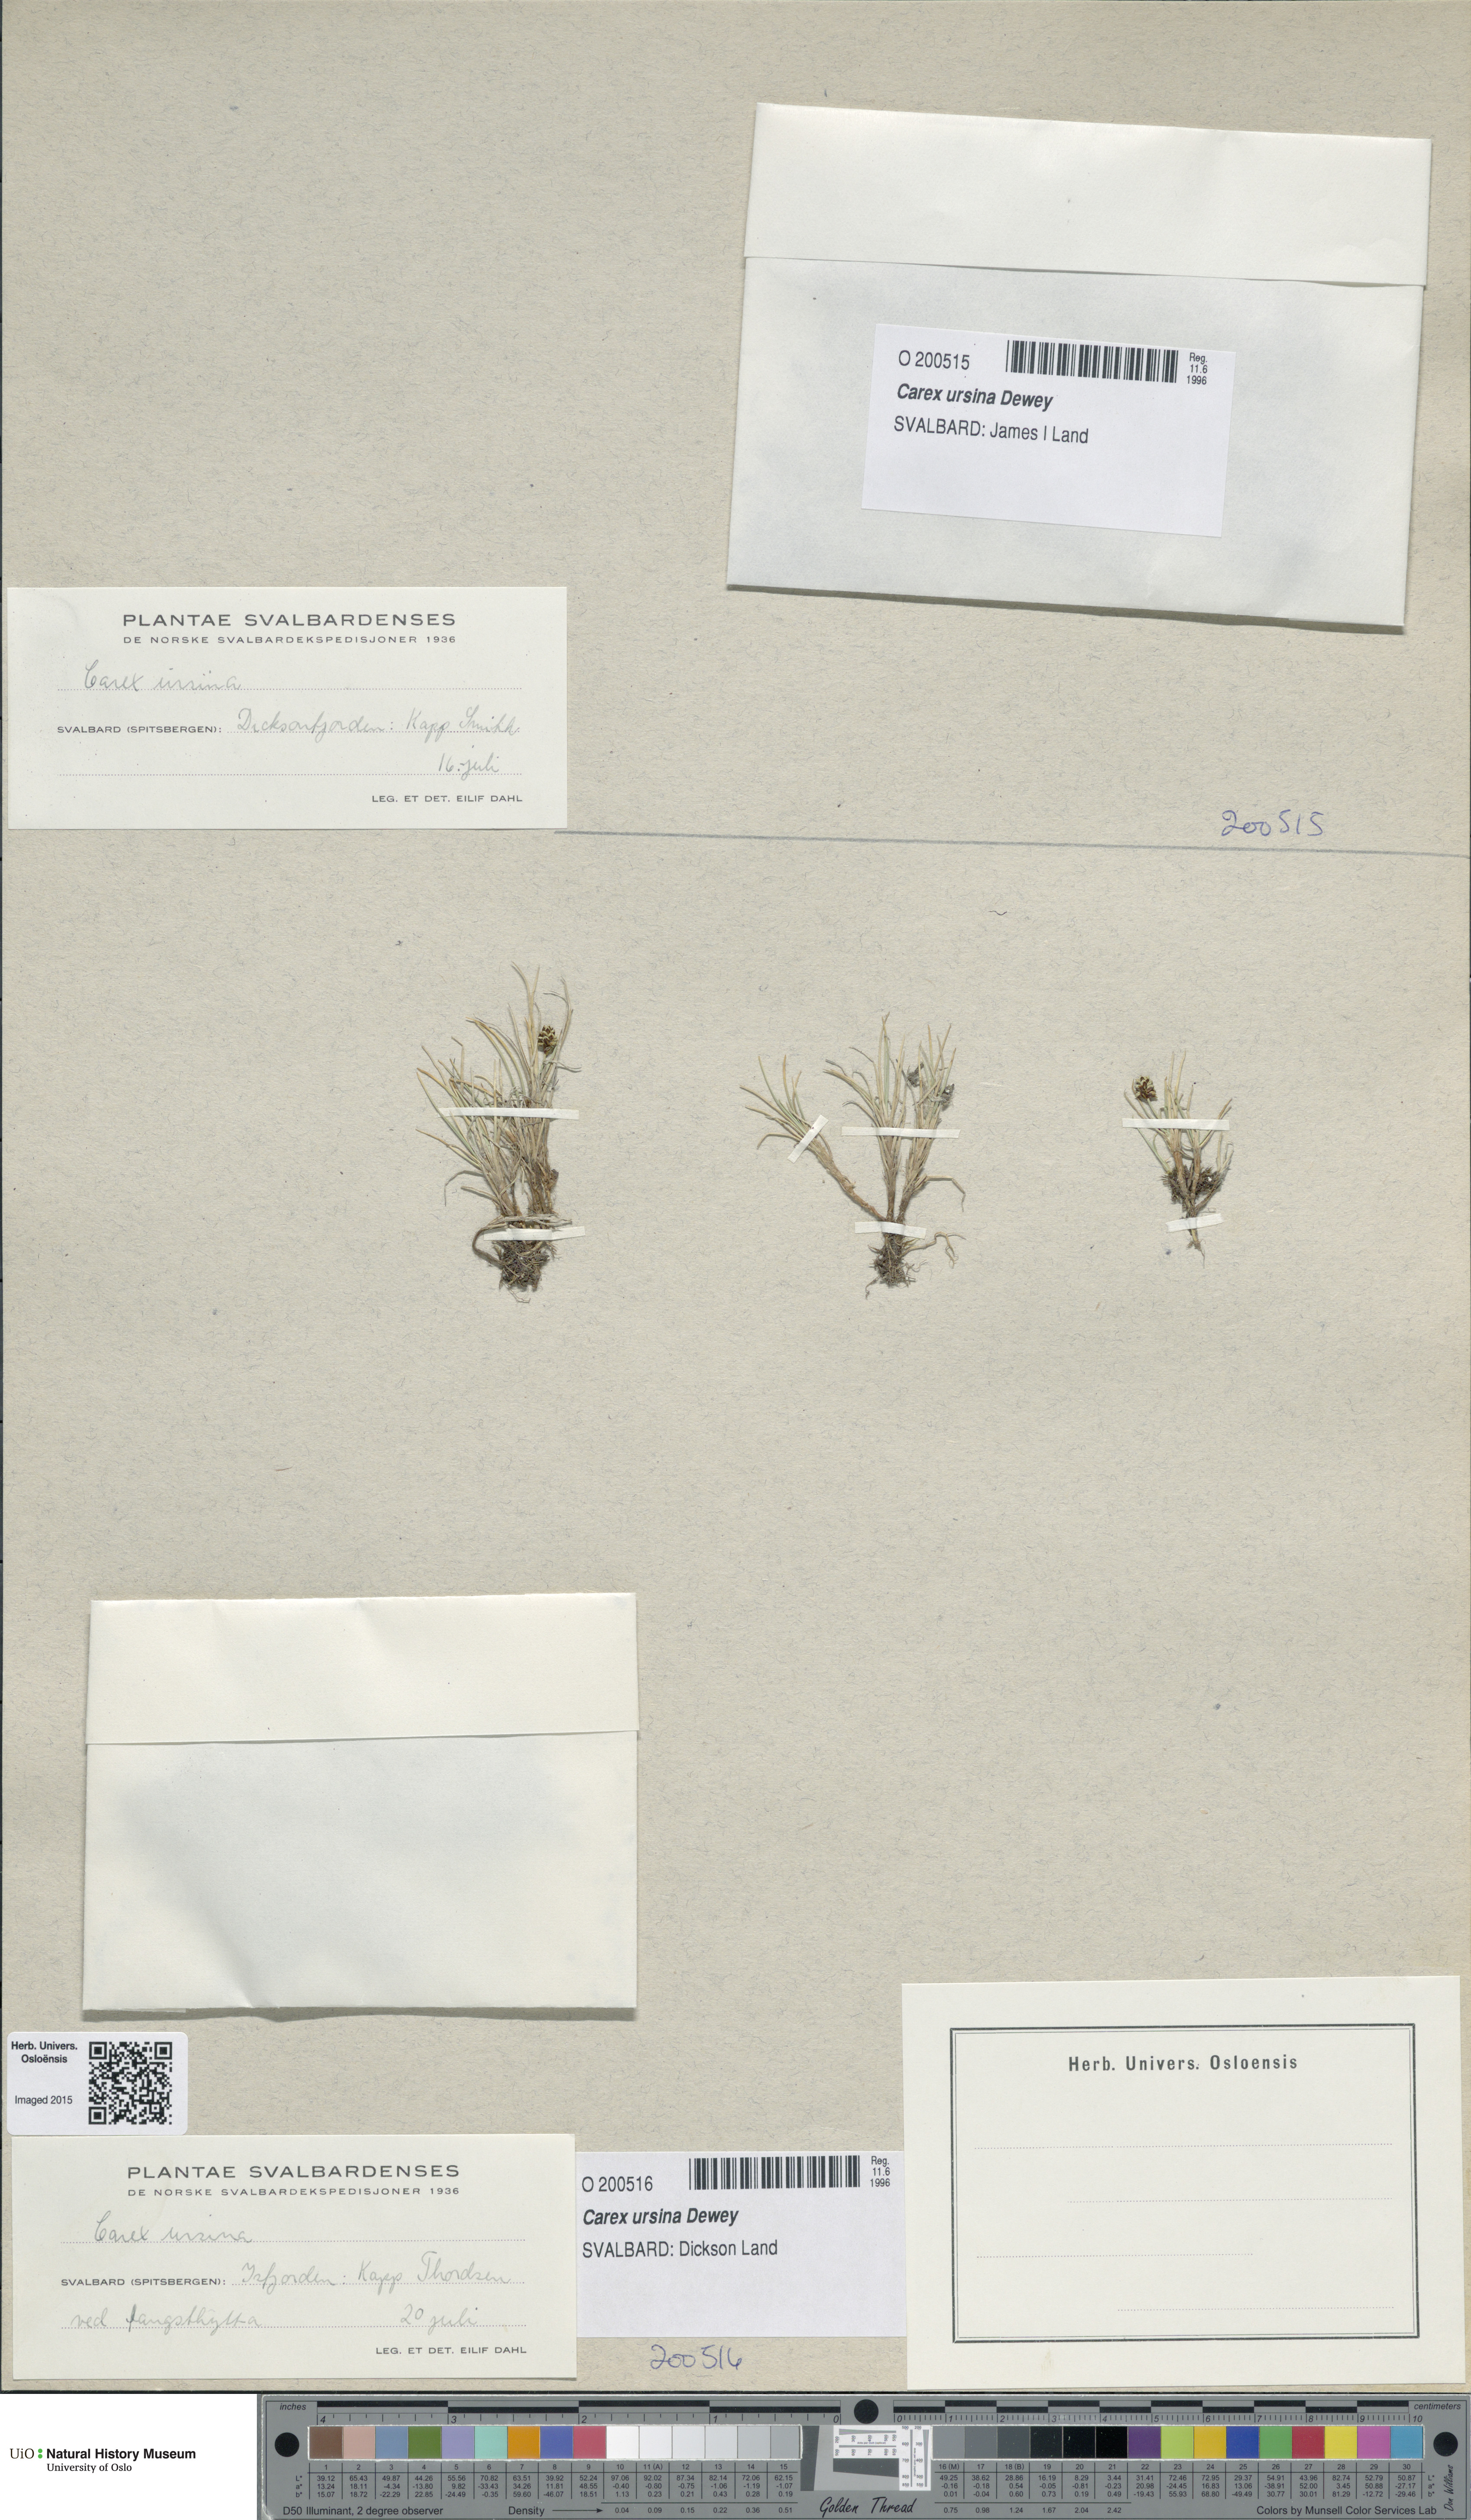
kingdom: Plantae
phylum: Tracheophyta
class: Liliopsida
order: Poales
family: Cyperaceae
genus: Carex
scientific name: Carex ursina
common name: Bear sedge
